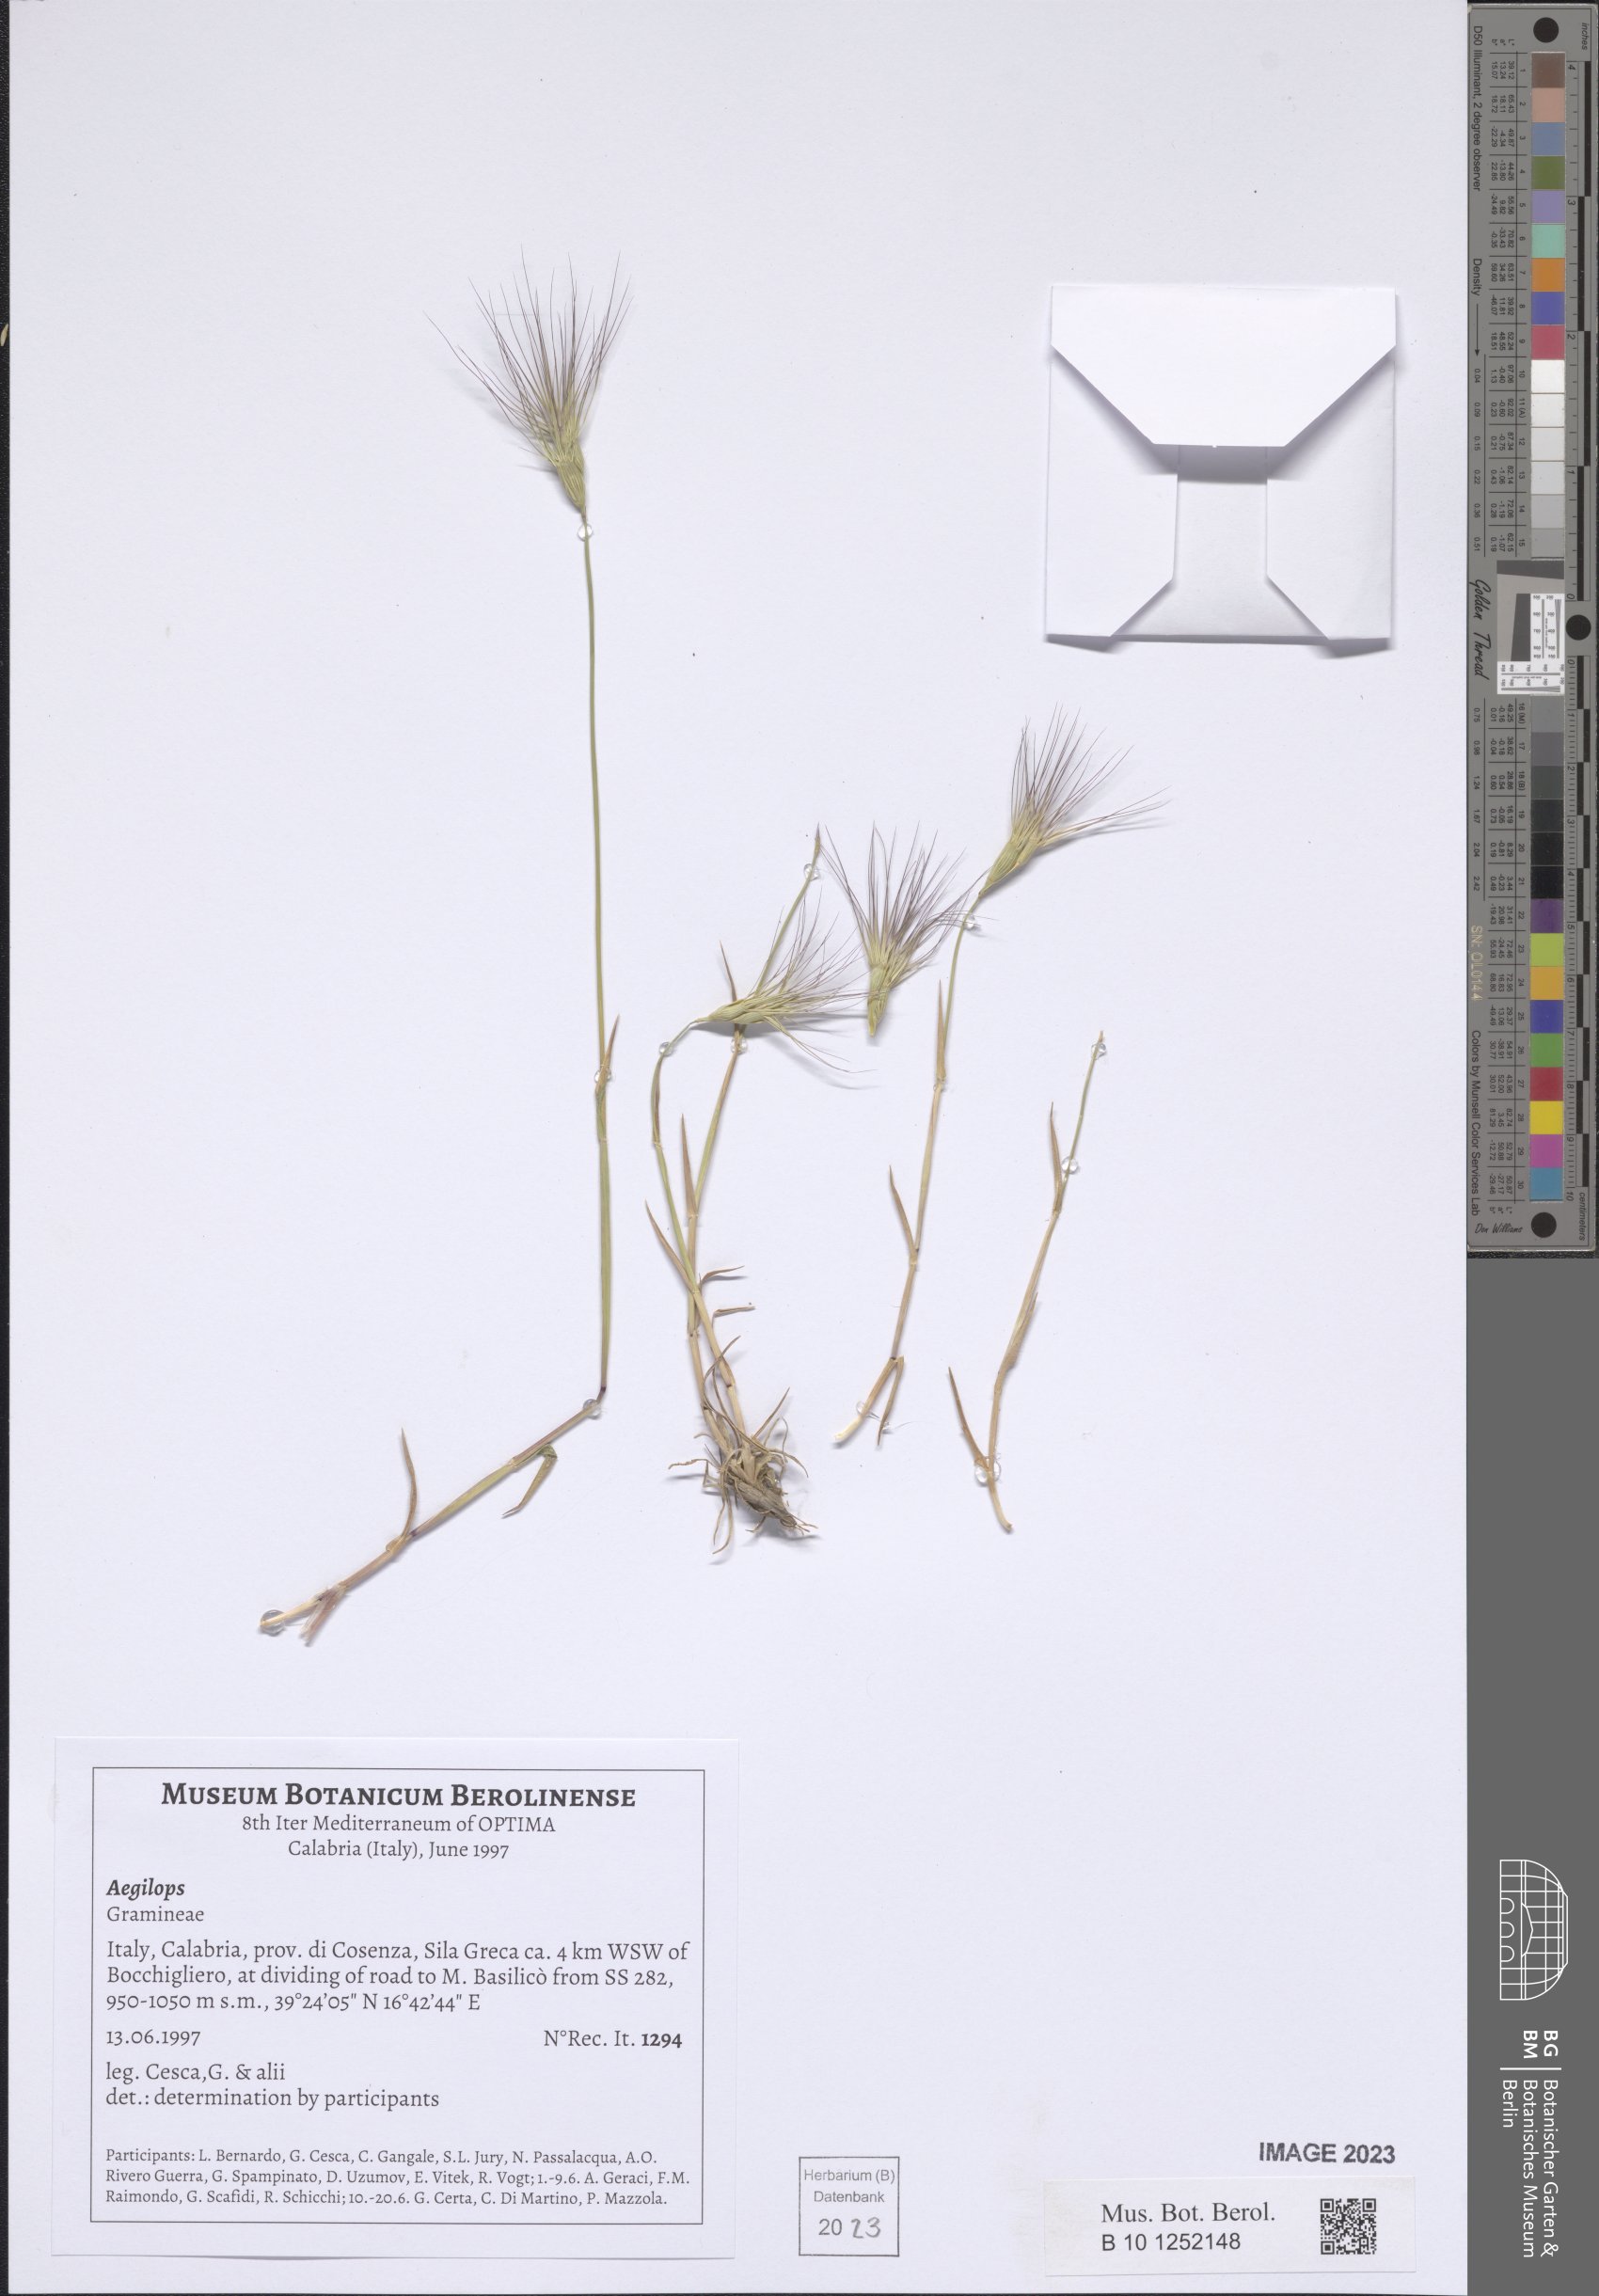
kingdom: Plantae
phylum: Tracheophyta
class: Liliopsida
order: Poales
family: Poaceae
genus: Aegilops
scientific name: Aegilops
